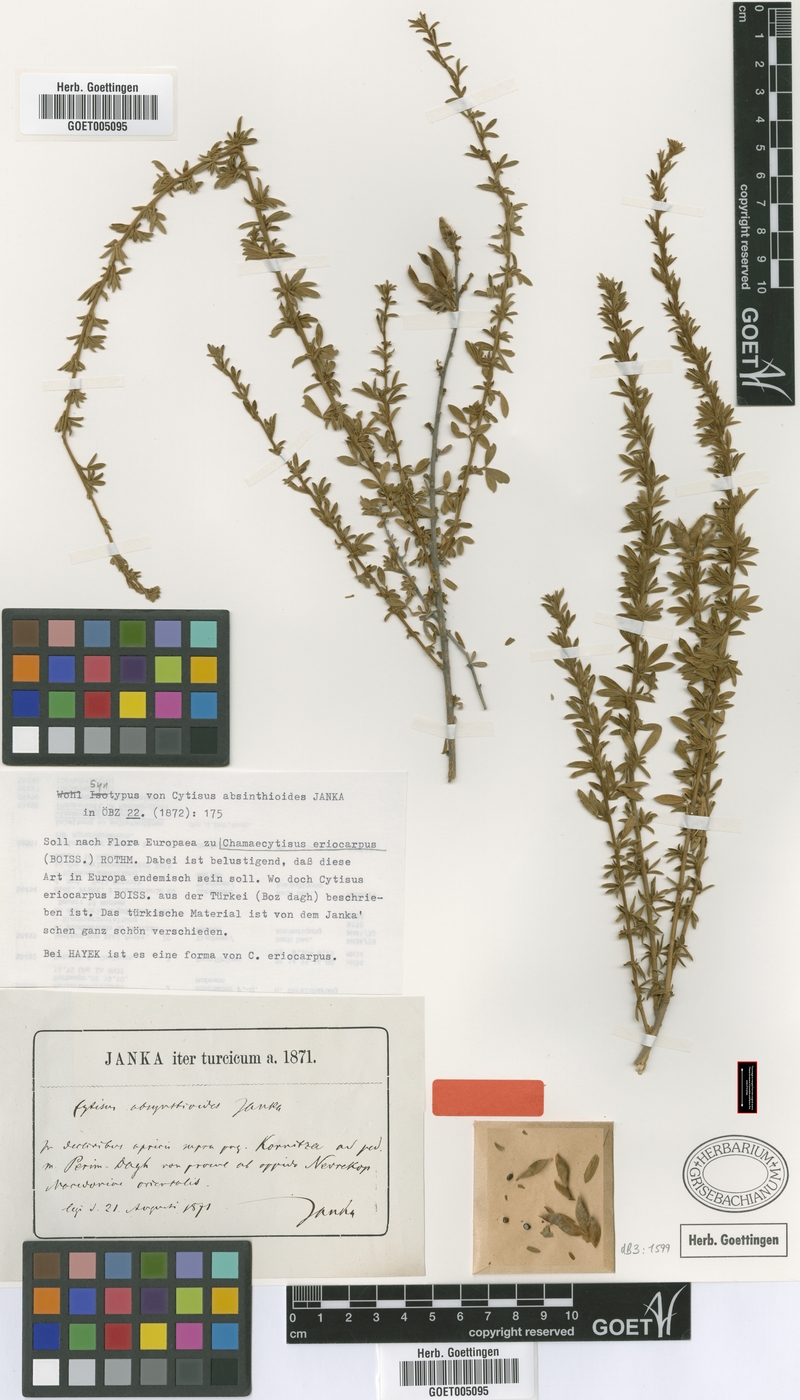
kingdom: Plantae
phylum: Tracheophyta
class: Magnoliopsida
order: Fabales
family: Fabaceae
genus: Chamaecytisus
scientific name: Chamaecytisus eriocarpus
